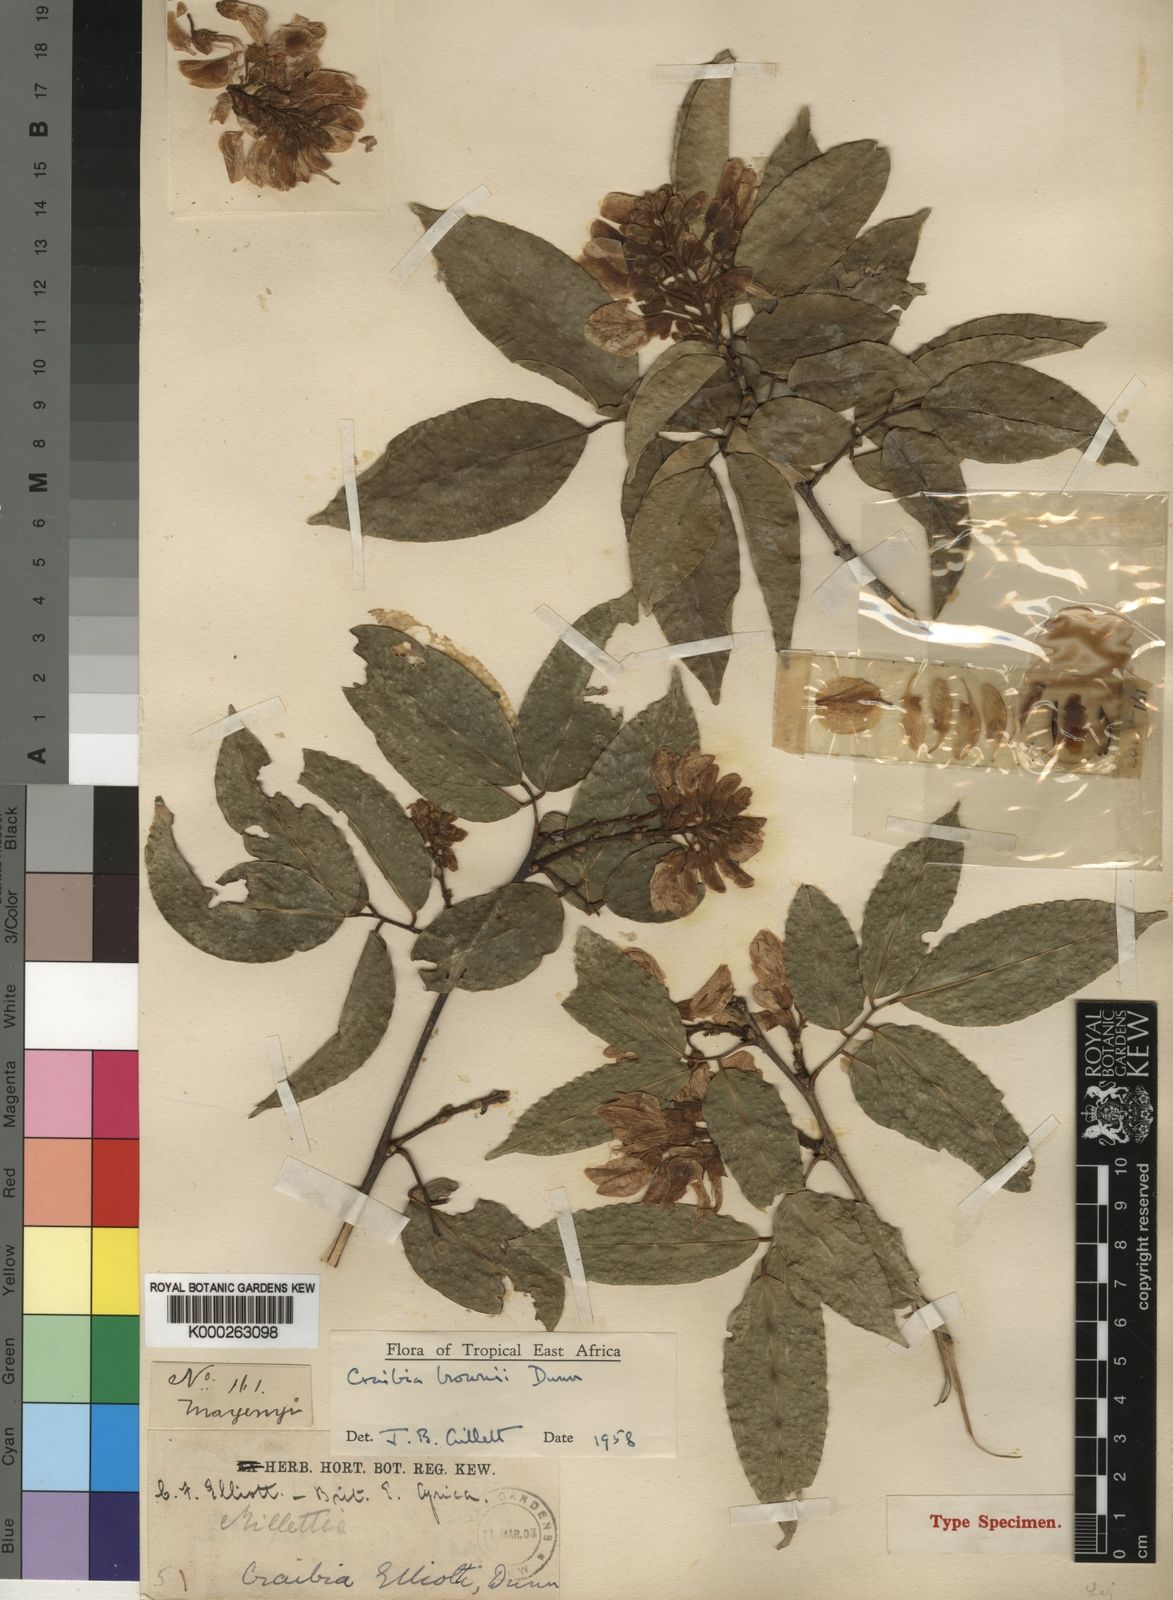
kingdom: Plantae
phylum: Tracheophyta
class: Magnoliopsida
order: Fabales
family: Fabaceae
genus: Craibia
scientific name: Craibia brownii
